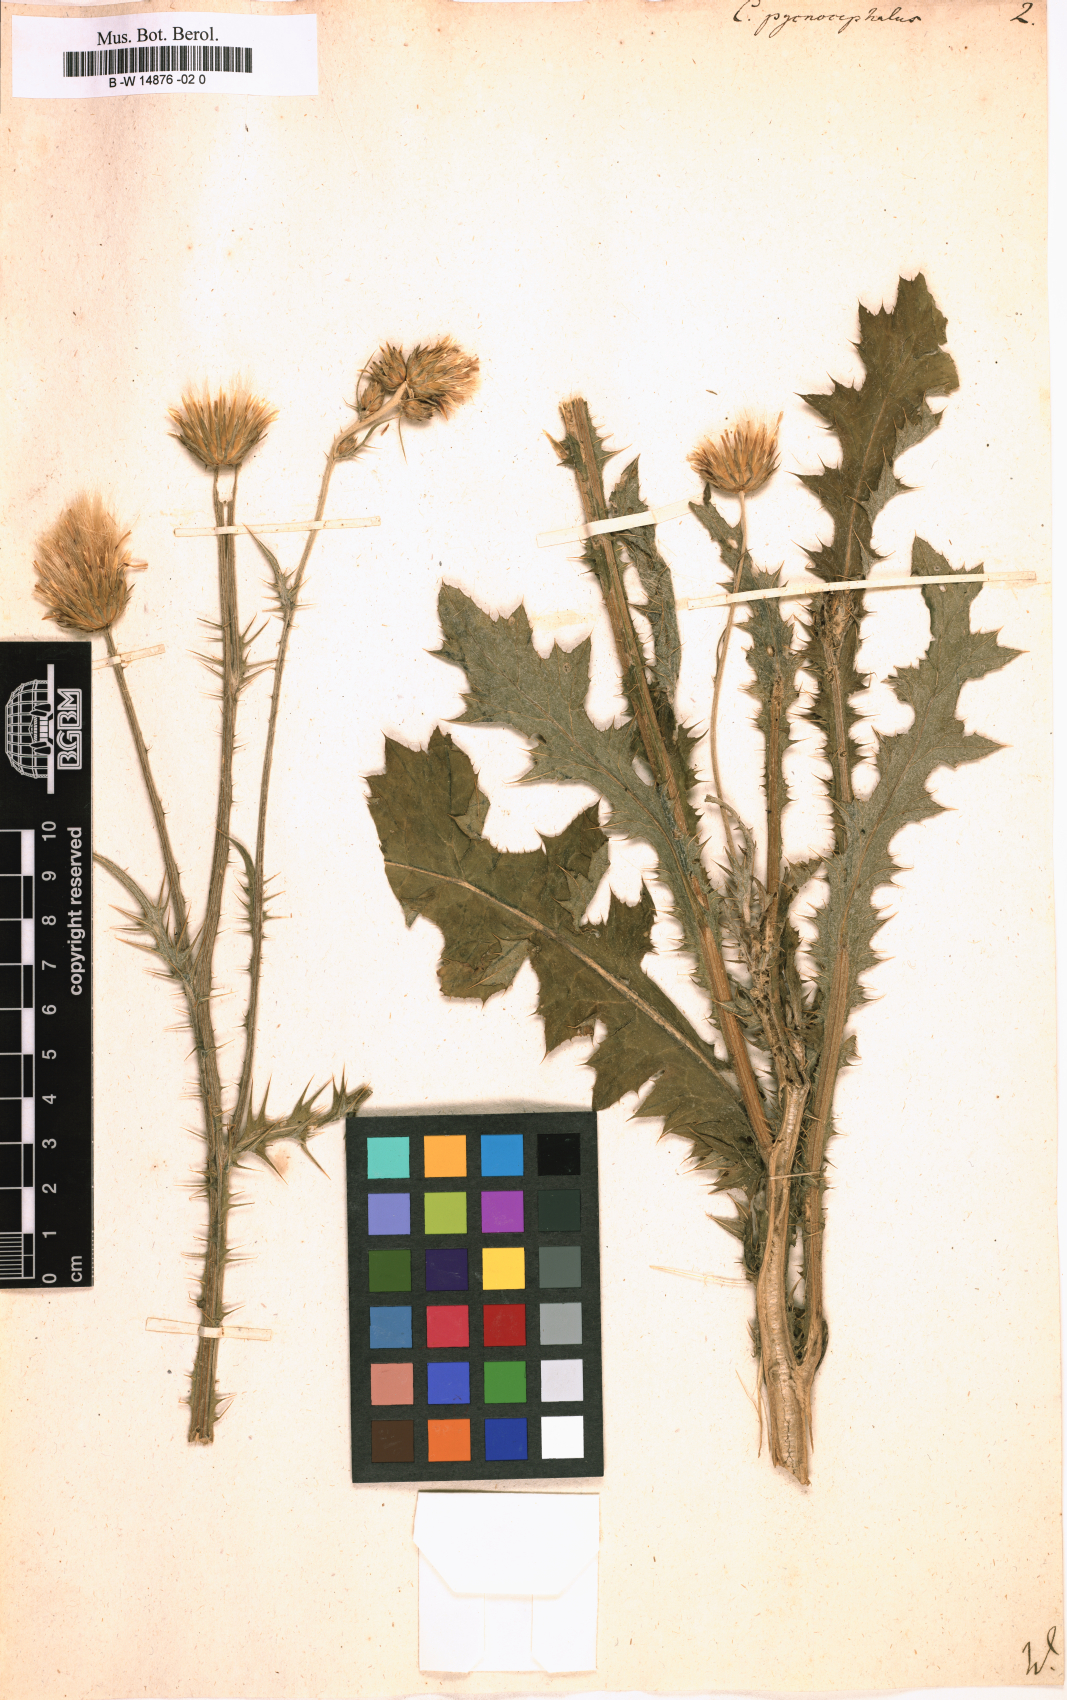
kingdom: Plantae
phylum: Tracheophyta
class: Magnoliopsida
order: Asterales
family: Asteraceae
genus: Carduus
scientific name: Carduus pycnocephalus
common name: Plymouth thistle
